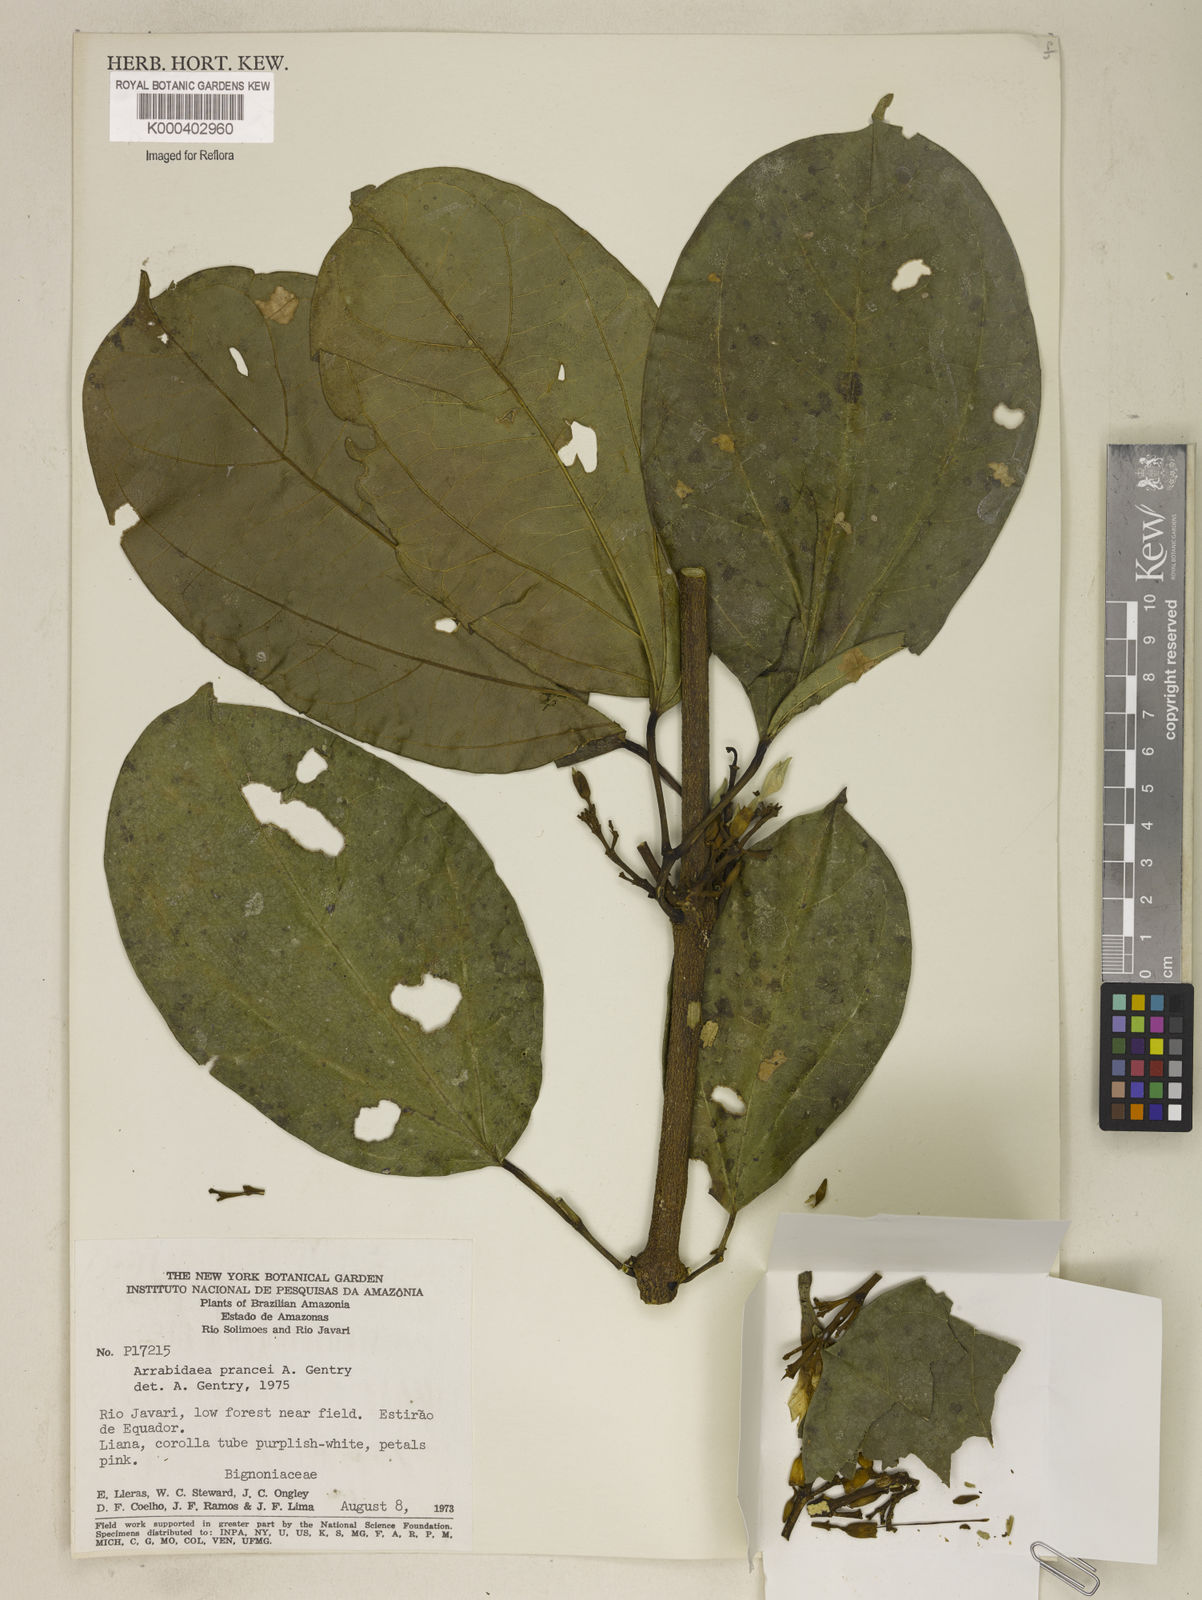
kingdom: Plantae
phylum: Tracheophyta
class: Magnoliopsida
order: Lamiales
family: Bignoniaceae
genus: Fridericia
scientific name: Fridericia prancei
